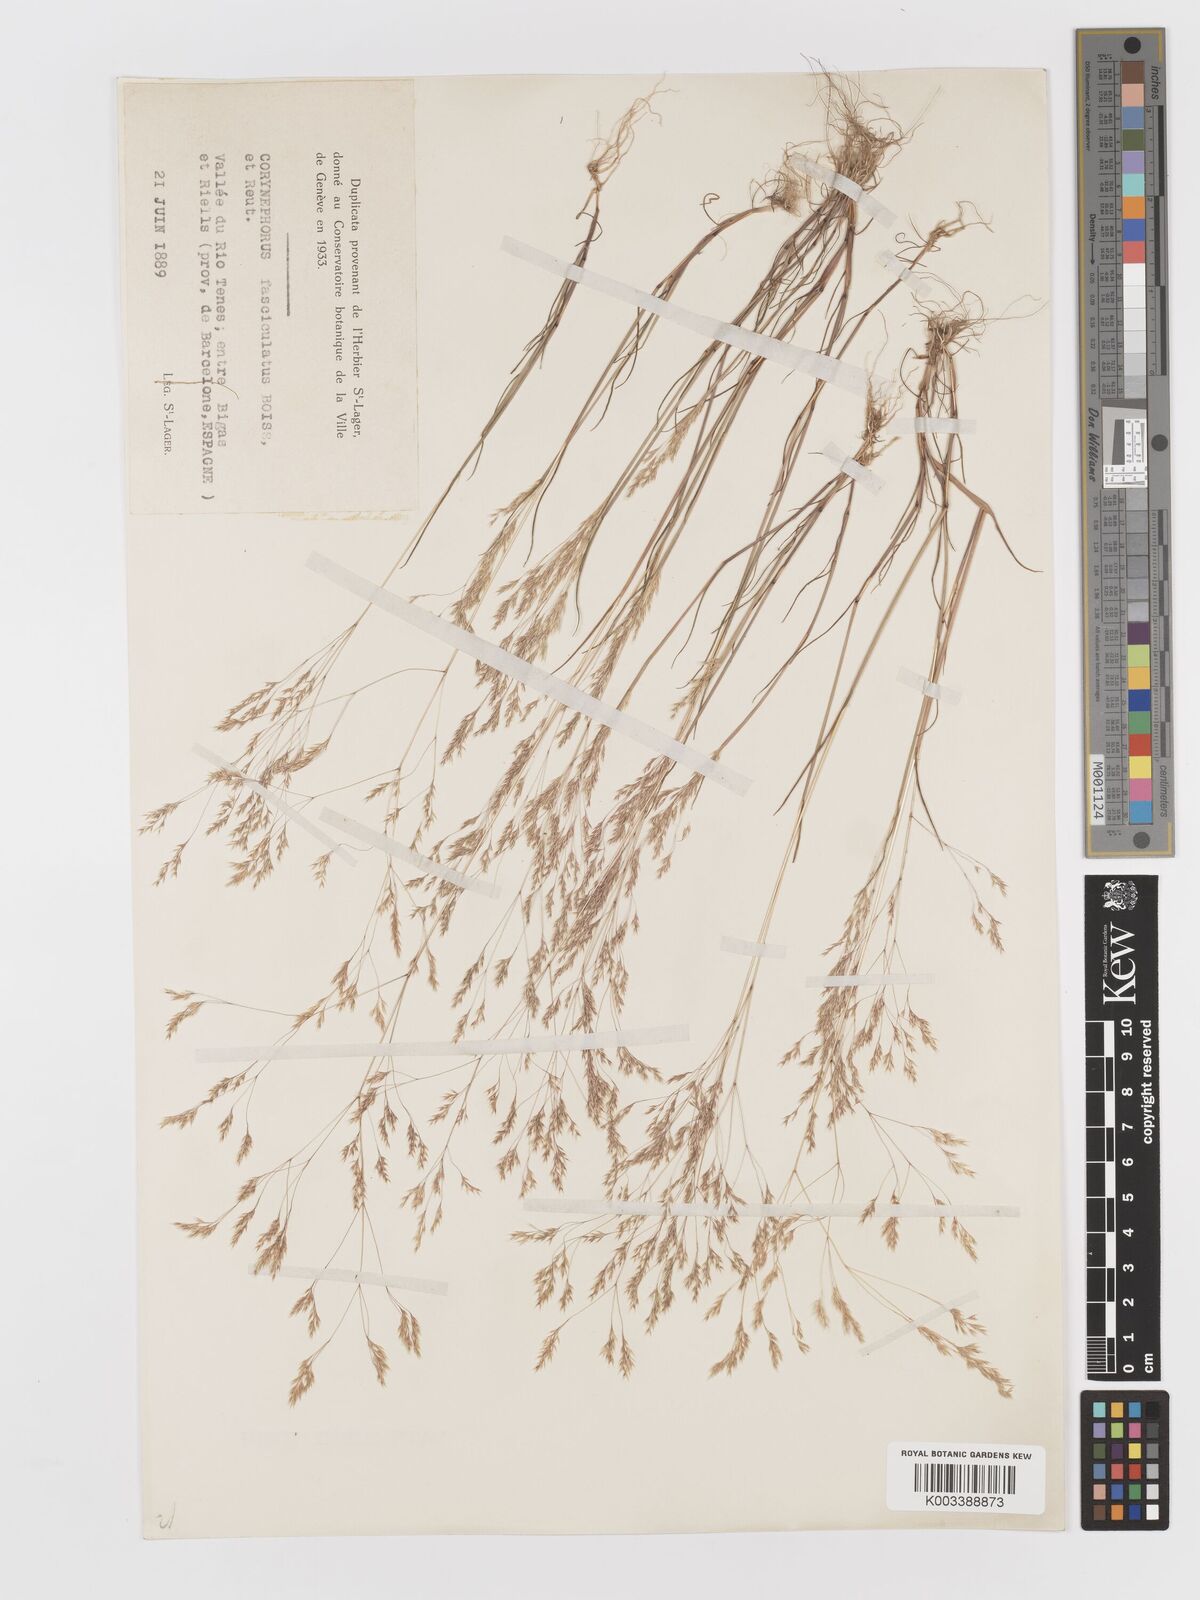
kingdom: Plantae
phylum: Tracheophyta
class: Liliopsida
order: Poales
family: Poaceae
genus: Corynephorus
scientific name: Corynephorus fasciculatus
